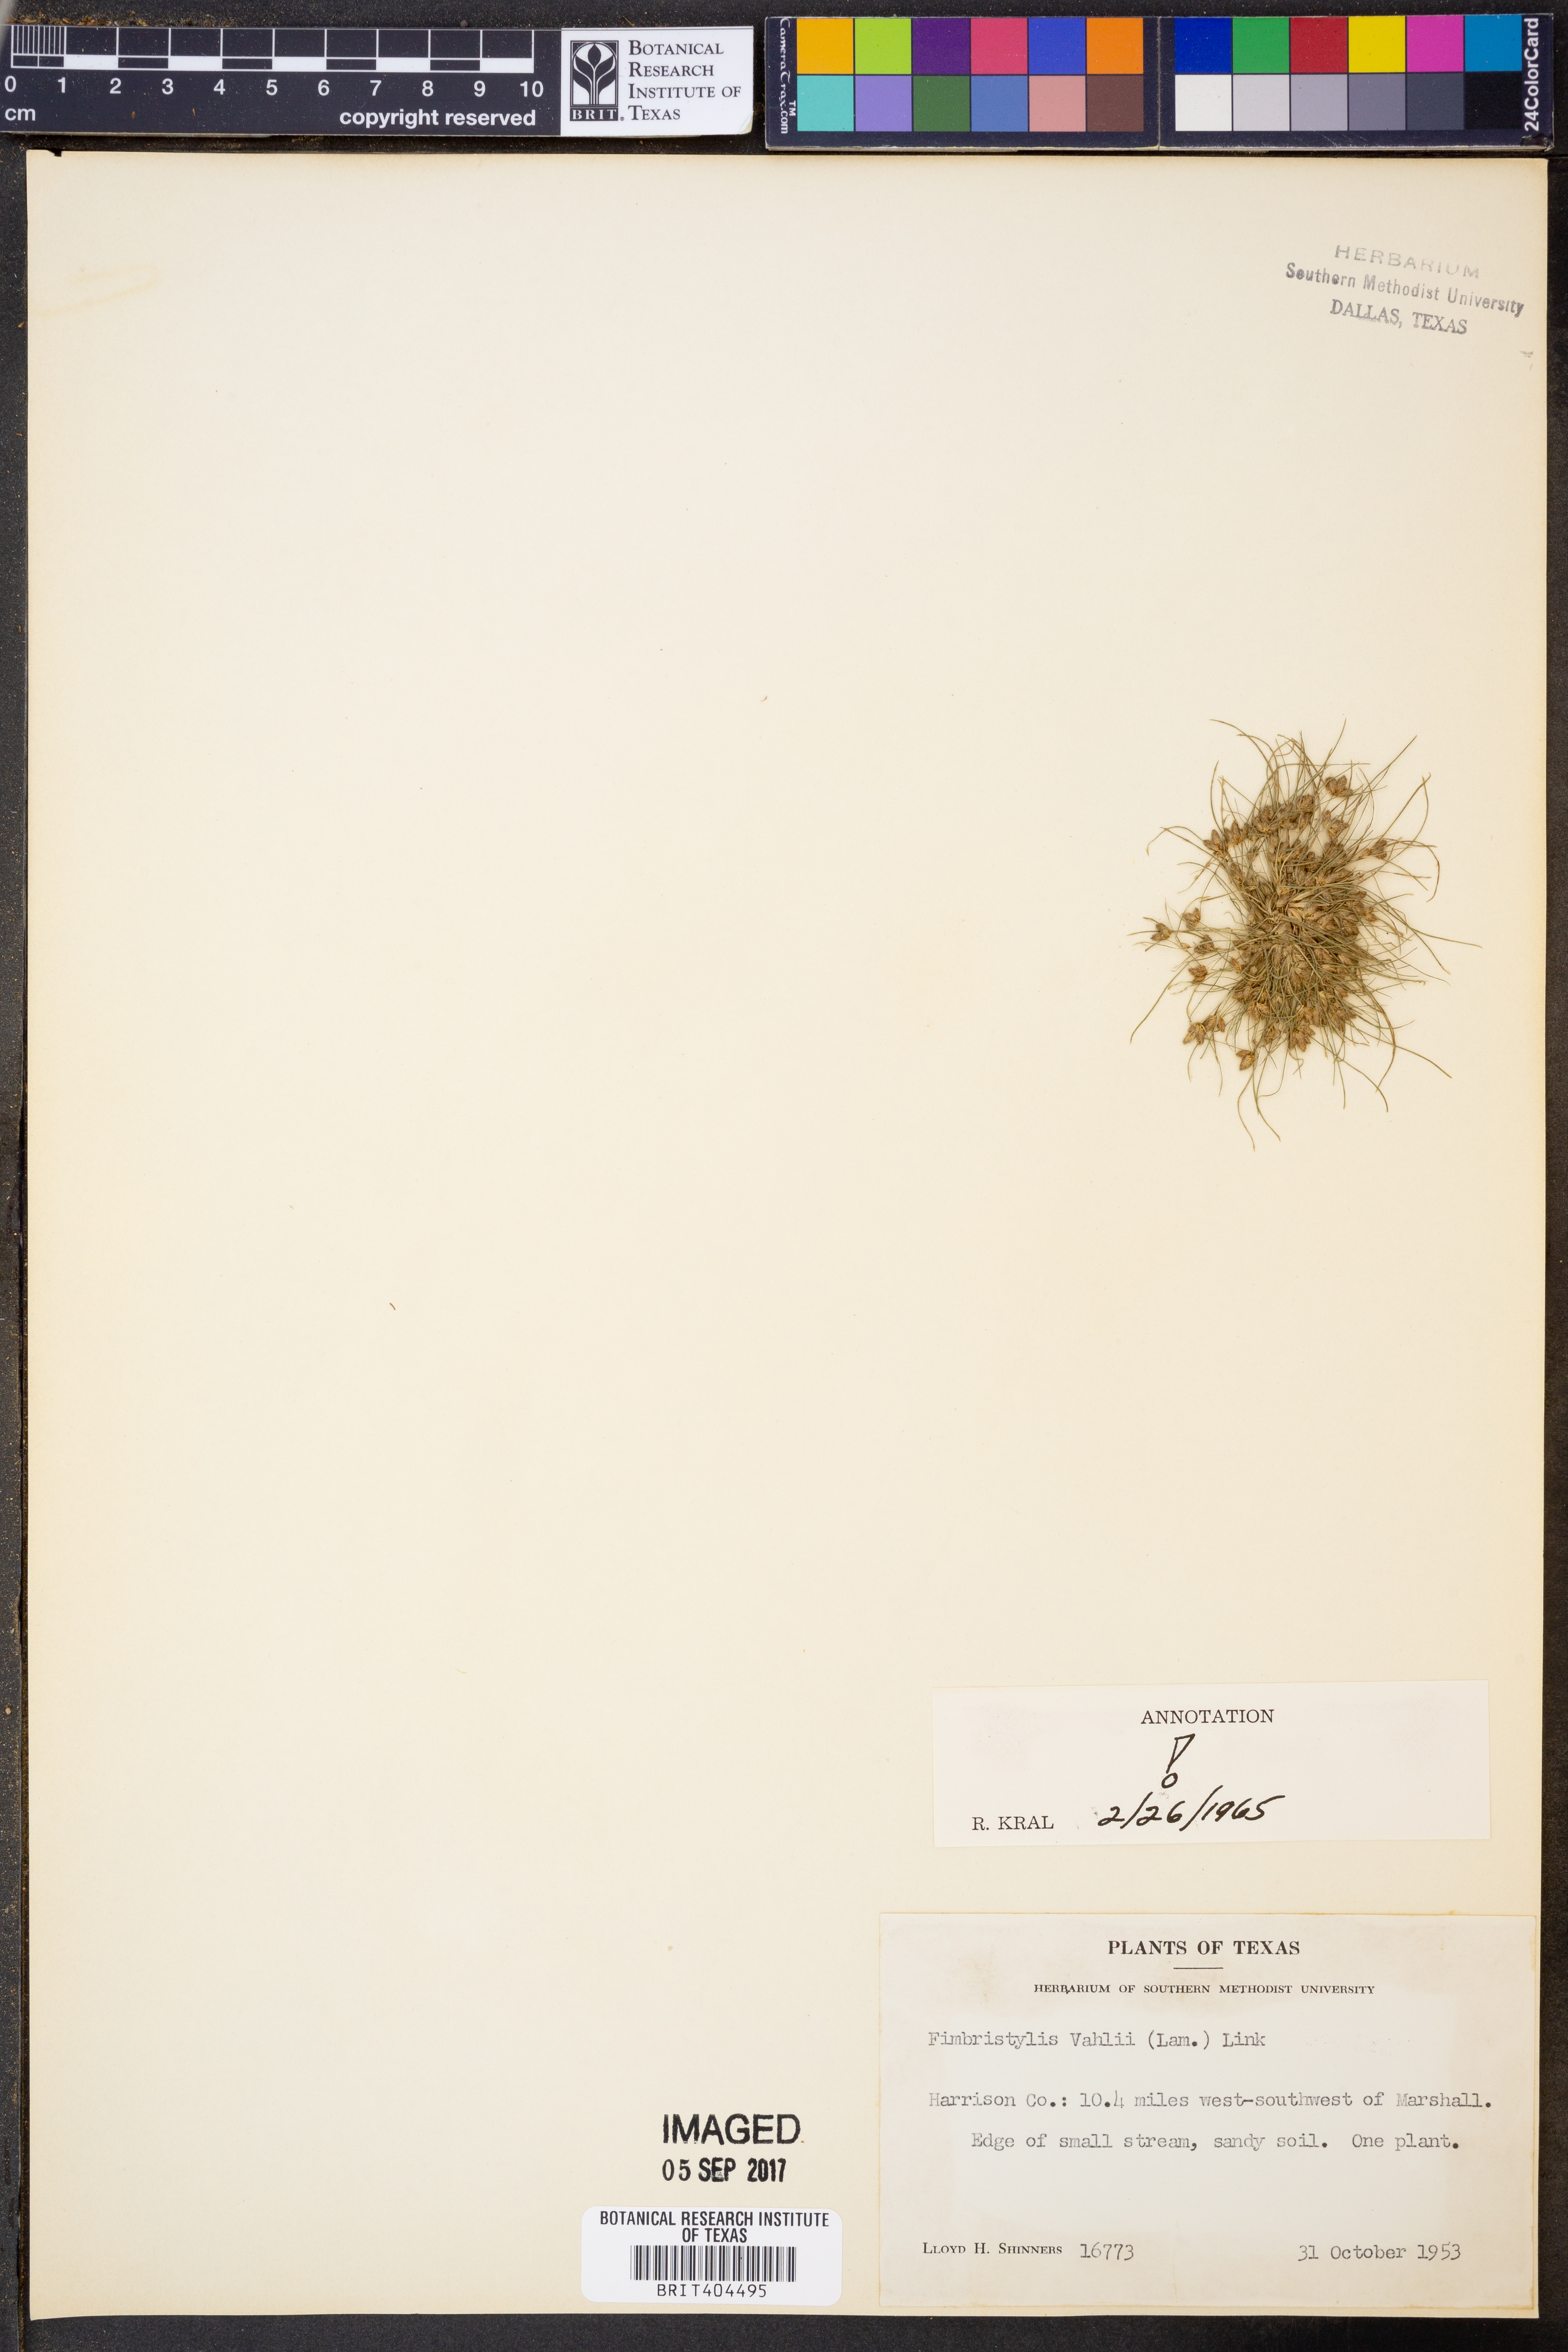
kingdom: Plantae
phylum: Tracheophyta
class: Liliopsida
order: Poales
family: Cyperaceae
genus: Fimbristylis
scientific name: Fimbristylis vahlii
